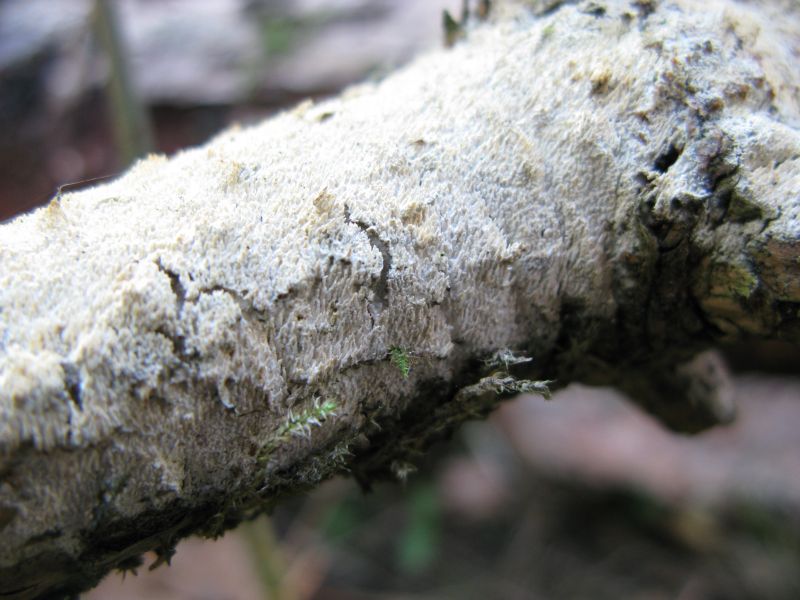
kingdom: Fungi
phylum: Basidiomycota
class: Agaricomycetes
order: Hymenochaetales
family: Schizoporaceae
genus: Xylodon
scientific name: Xylodon brevisetus
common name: tætvortet tandsvamp
